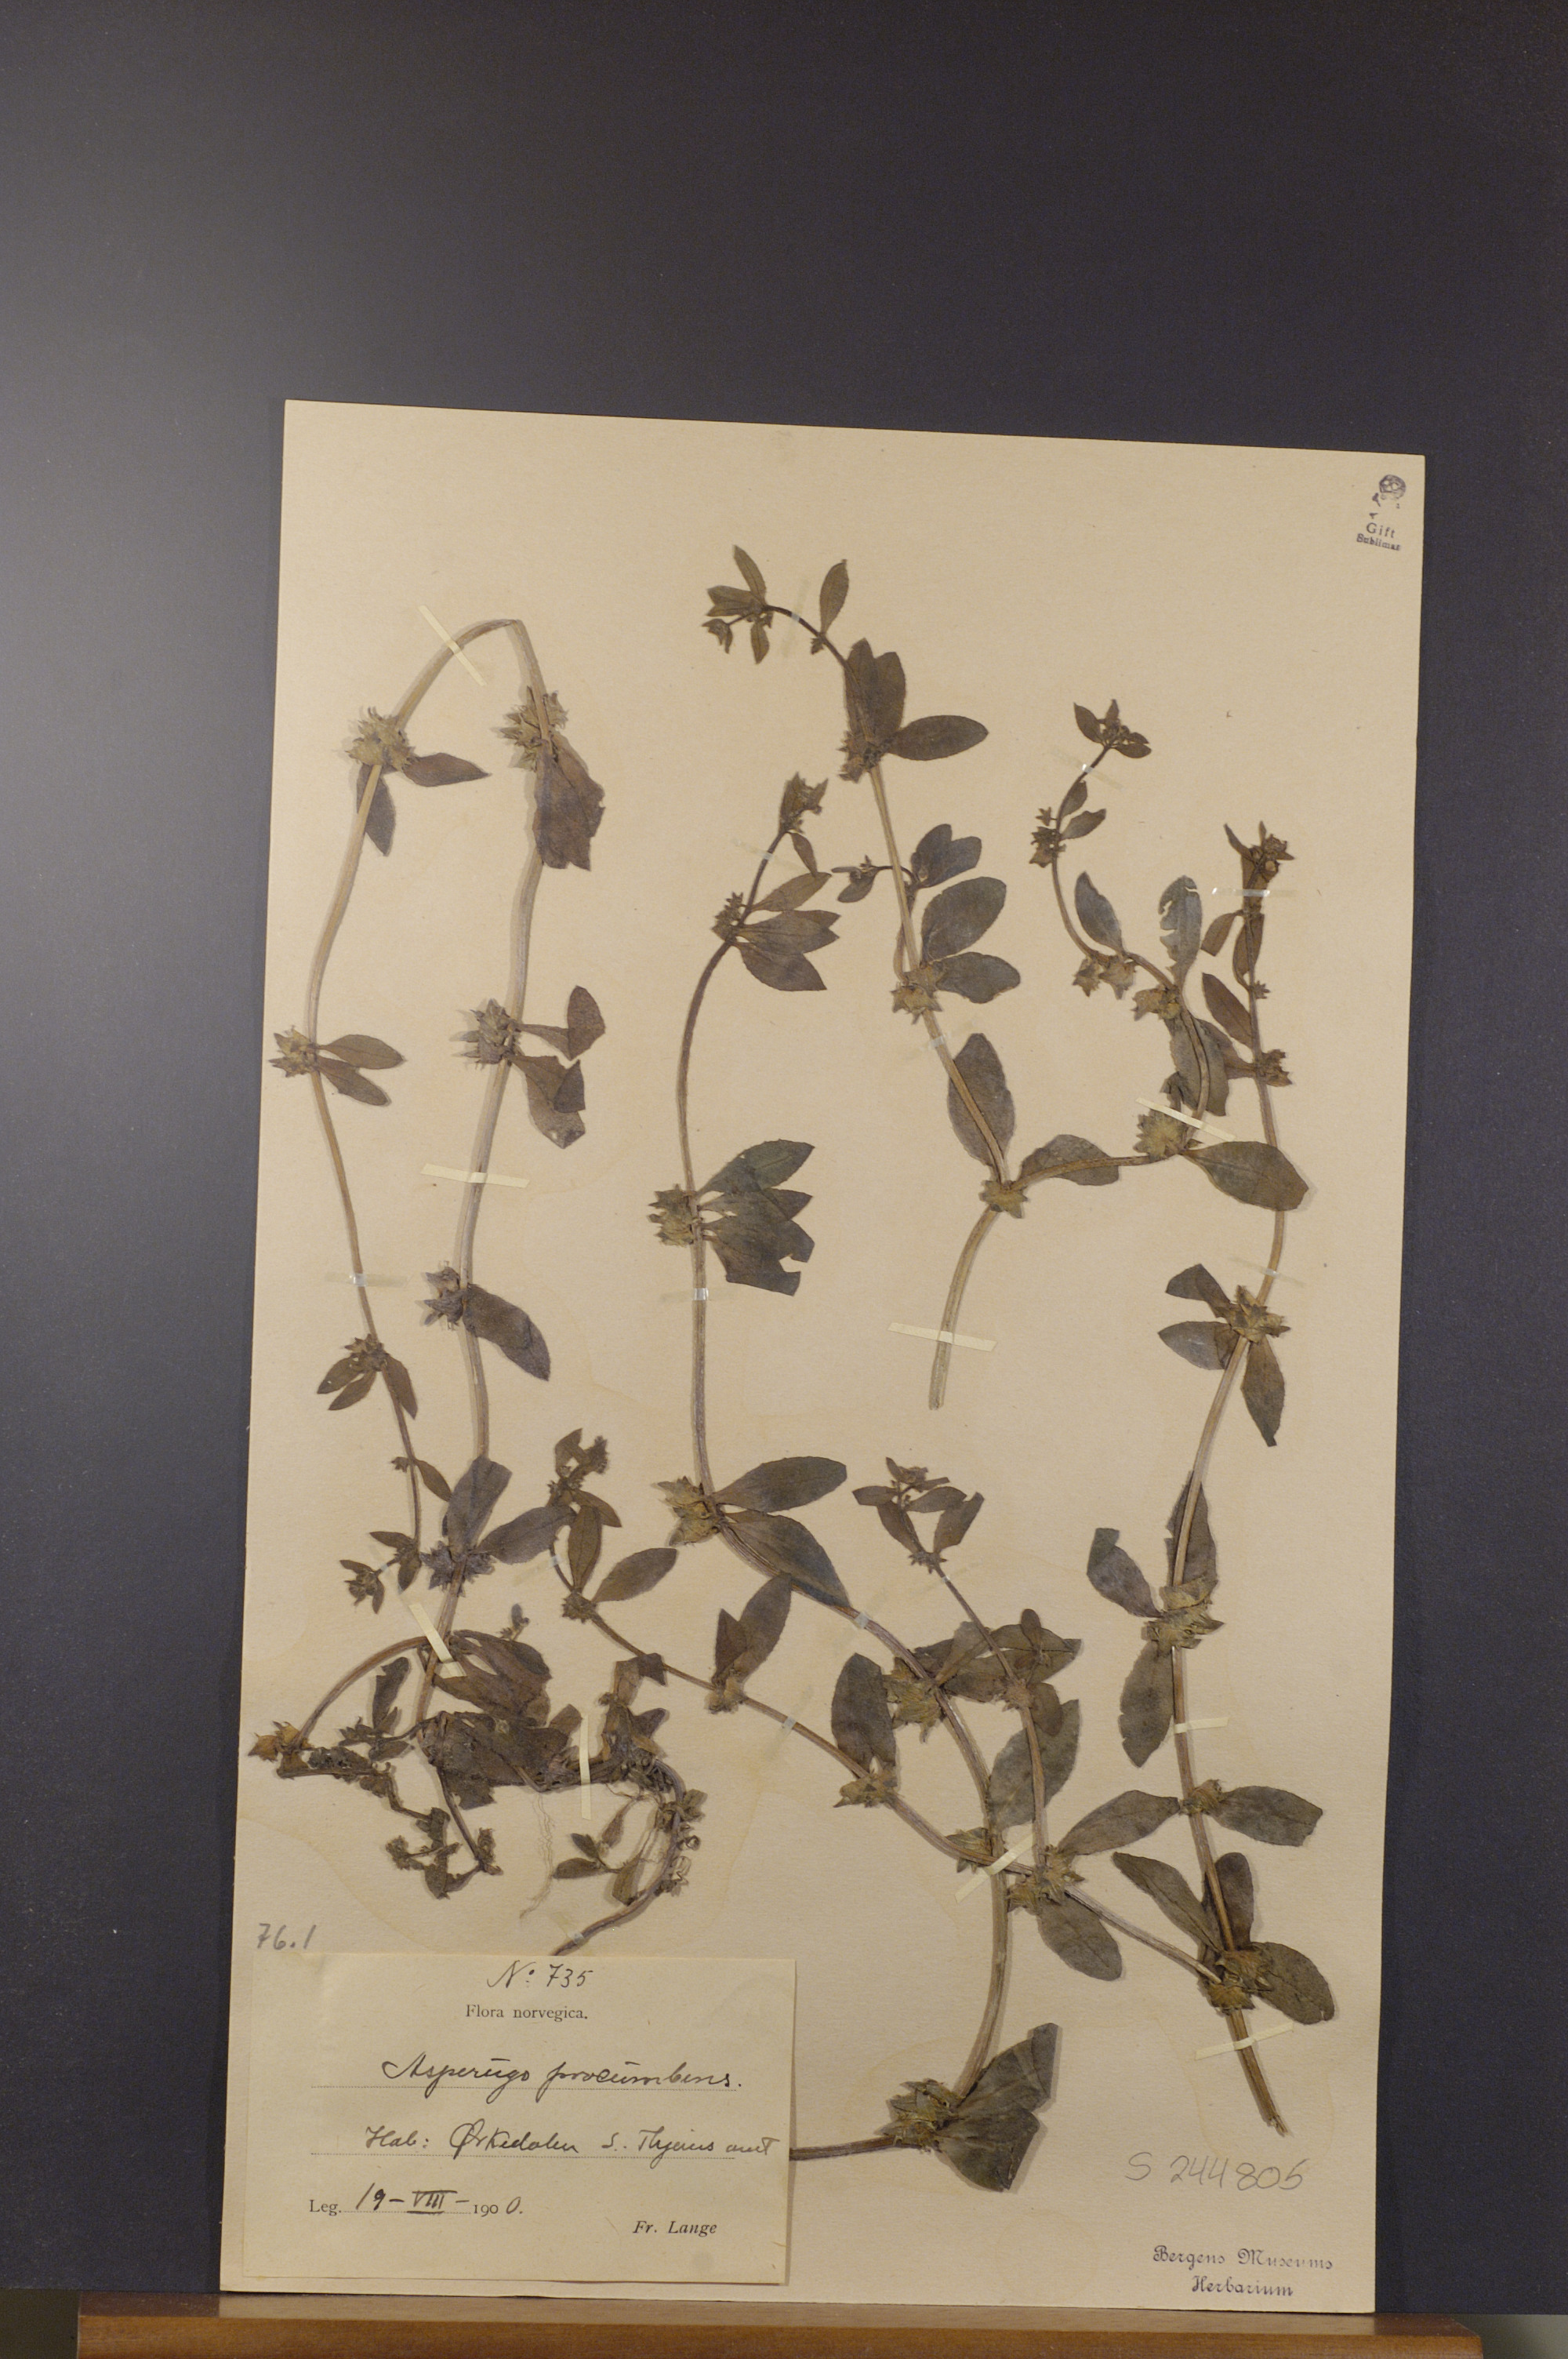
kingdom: Plantae
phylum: Tracheophyta
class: Magnoliopsida
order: Boraginales
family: Boraginaceae
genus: Asperugo
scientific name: Asperugo procumbens
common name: Madwort
